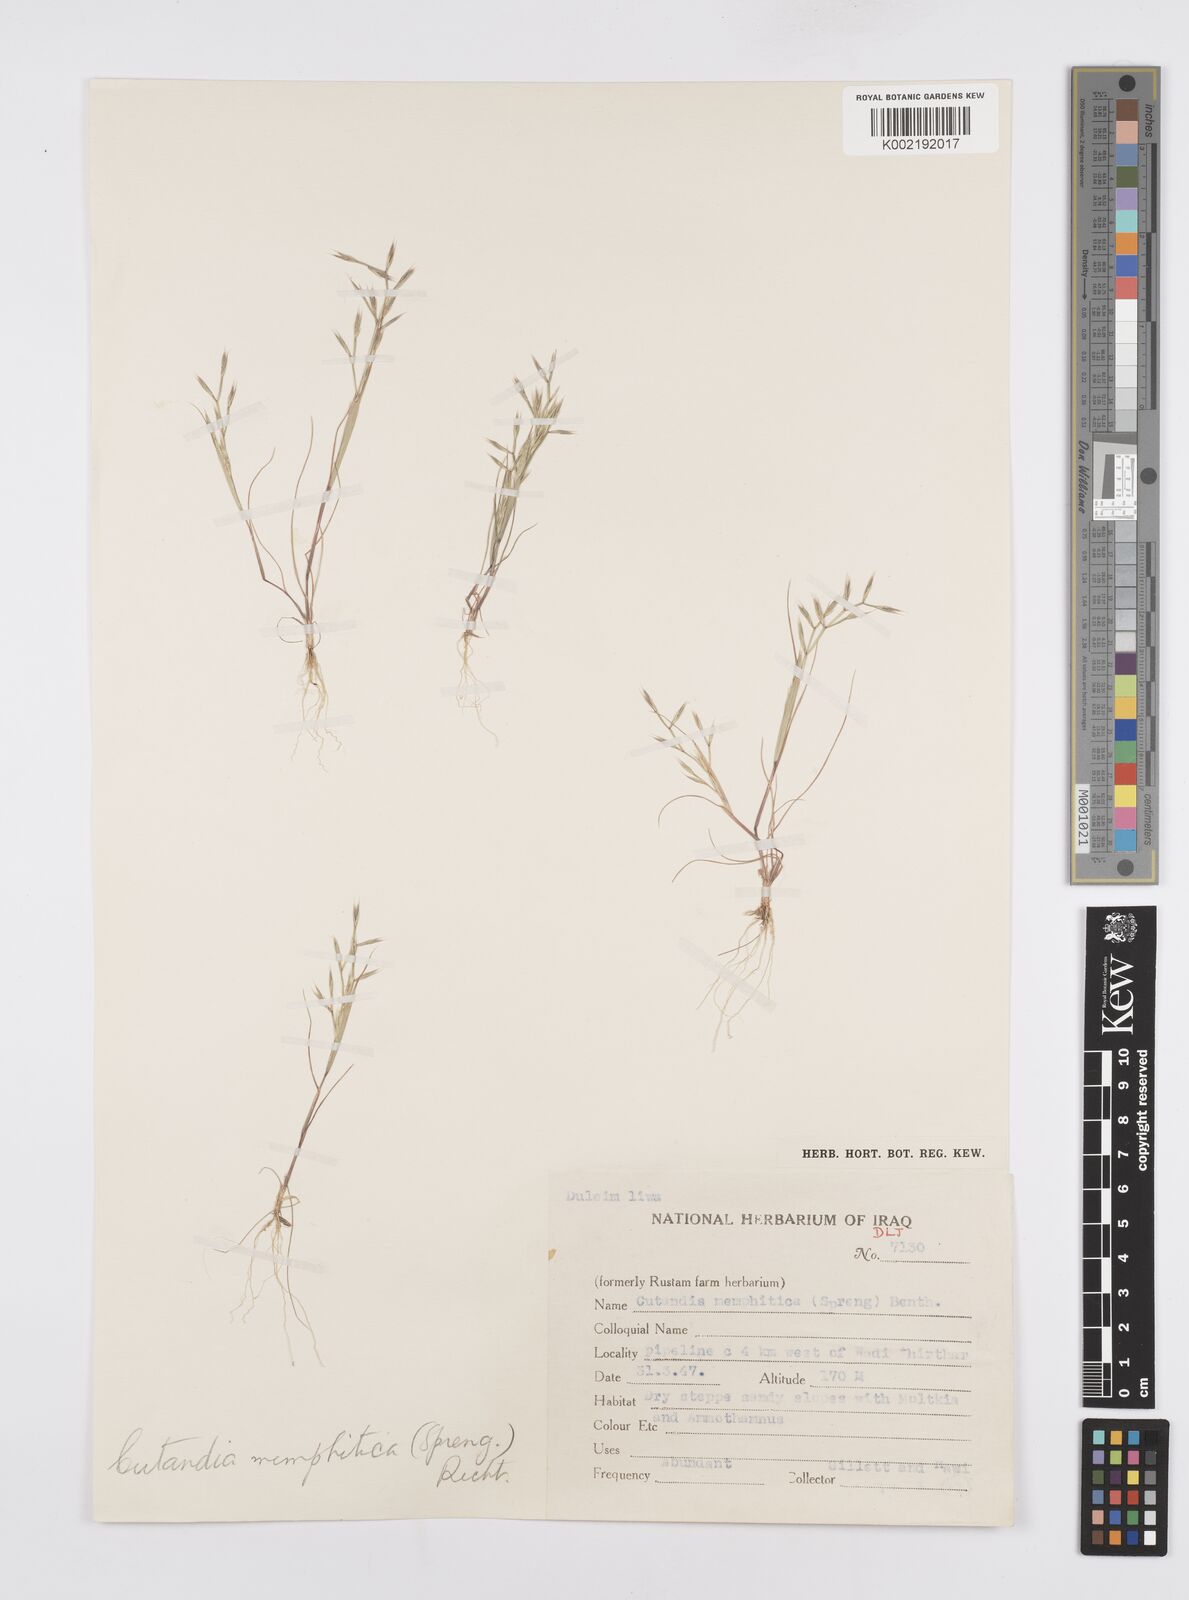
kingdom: Plantae
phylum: Tracheophyta
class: Liliopsida
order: Poales
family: Poaceae
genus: Cutandia
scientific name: Cutandia memphitica
